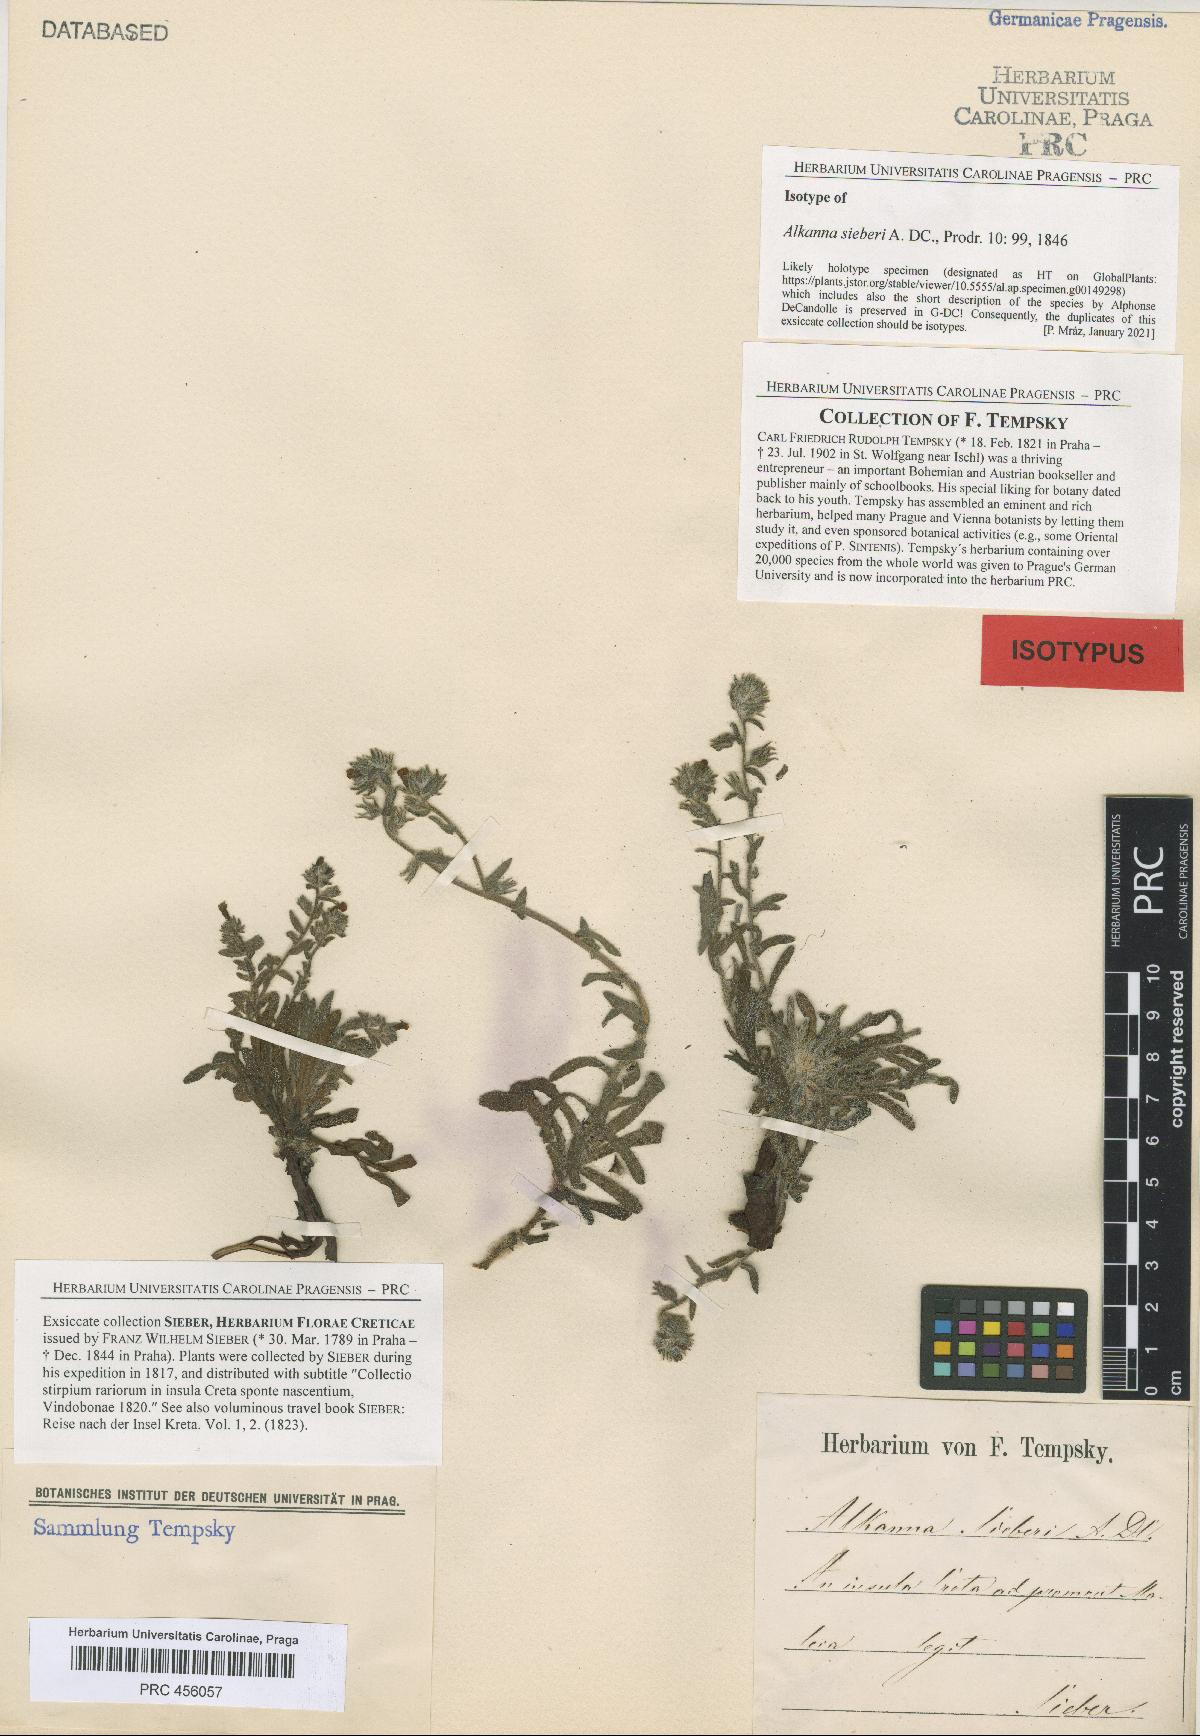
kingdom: Plantae
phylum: Tracheophyta
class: Magnoliopsida
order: Boraginales
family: Boraginaceae
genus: Alkanna
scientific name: Alkanna sieberi
